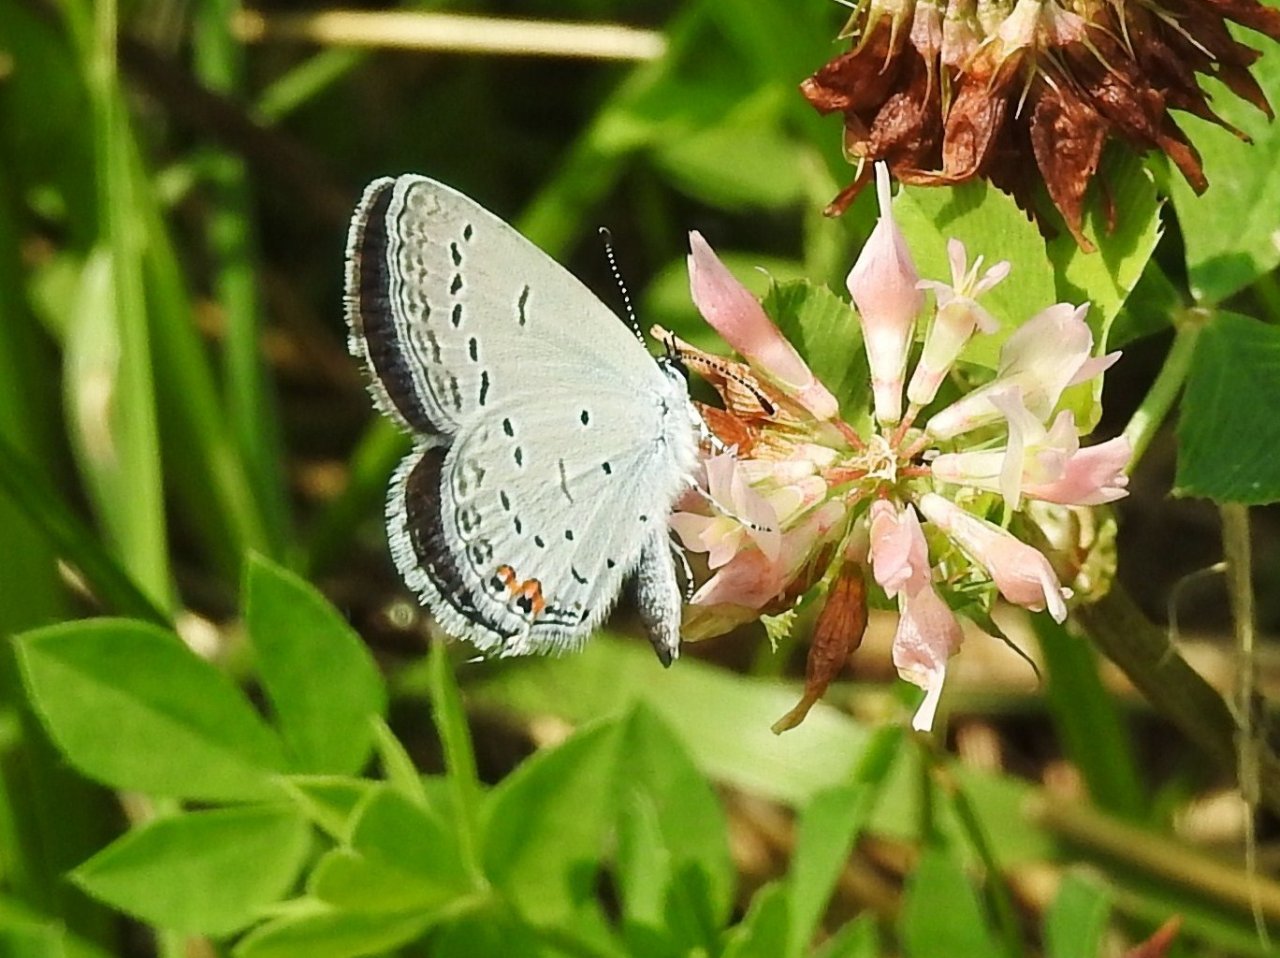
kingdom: Animalia
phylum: Arthropoda
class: Insecta
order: Lepidoptera
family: Lycaenidae
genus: Elkalyce
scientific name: Elkalyce comyntas
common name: Eastern Tailed-Blue
